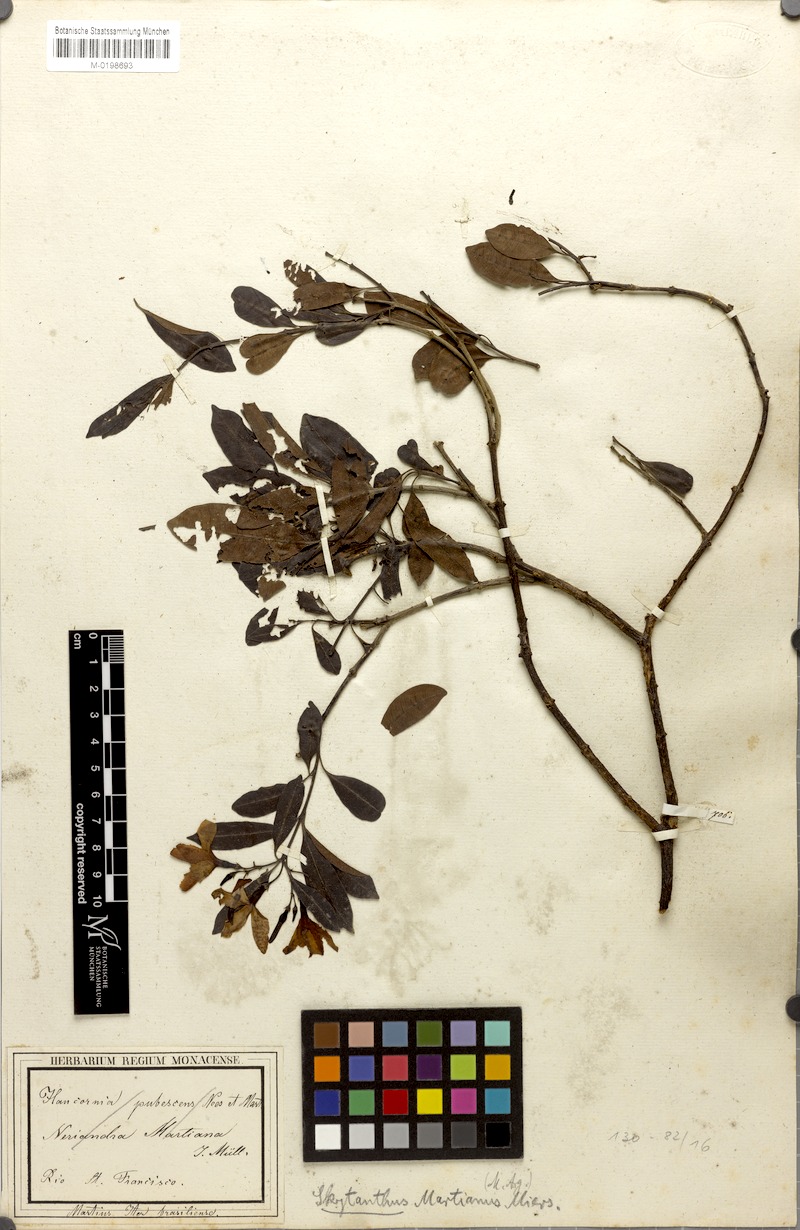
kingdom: Plantae
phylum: Tracheophyta
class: Magnoliopsida
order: Gentianales
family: Apocynaceae
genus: Skytanthus
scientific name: Skytanthus martianus
